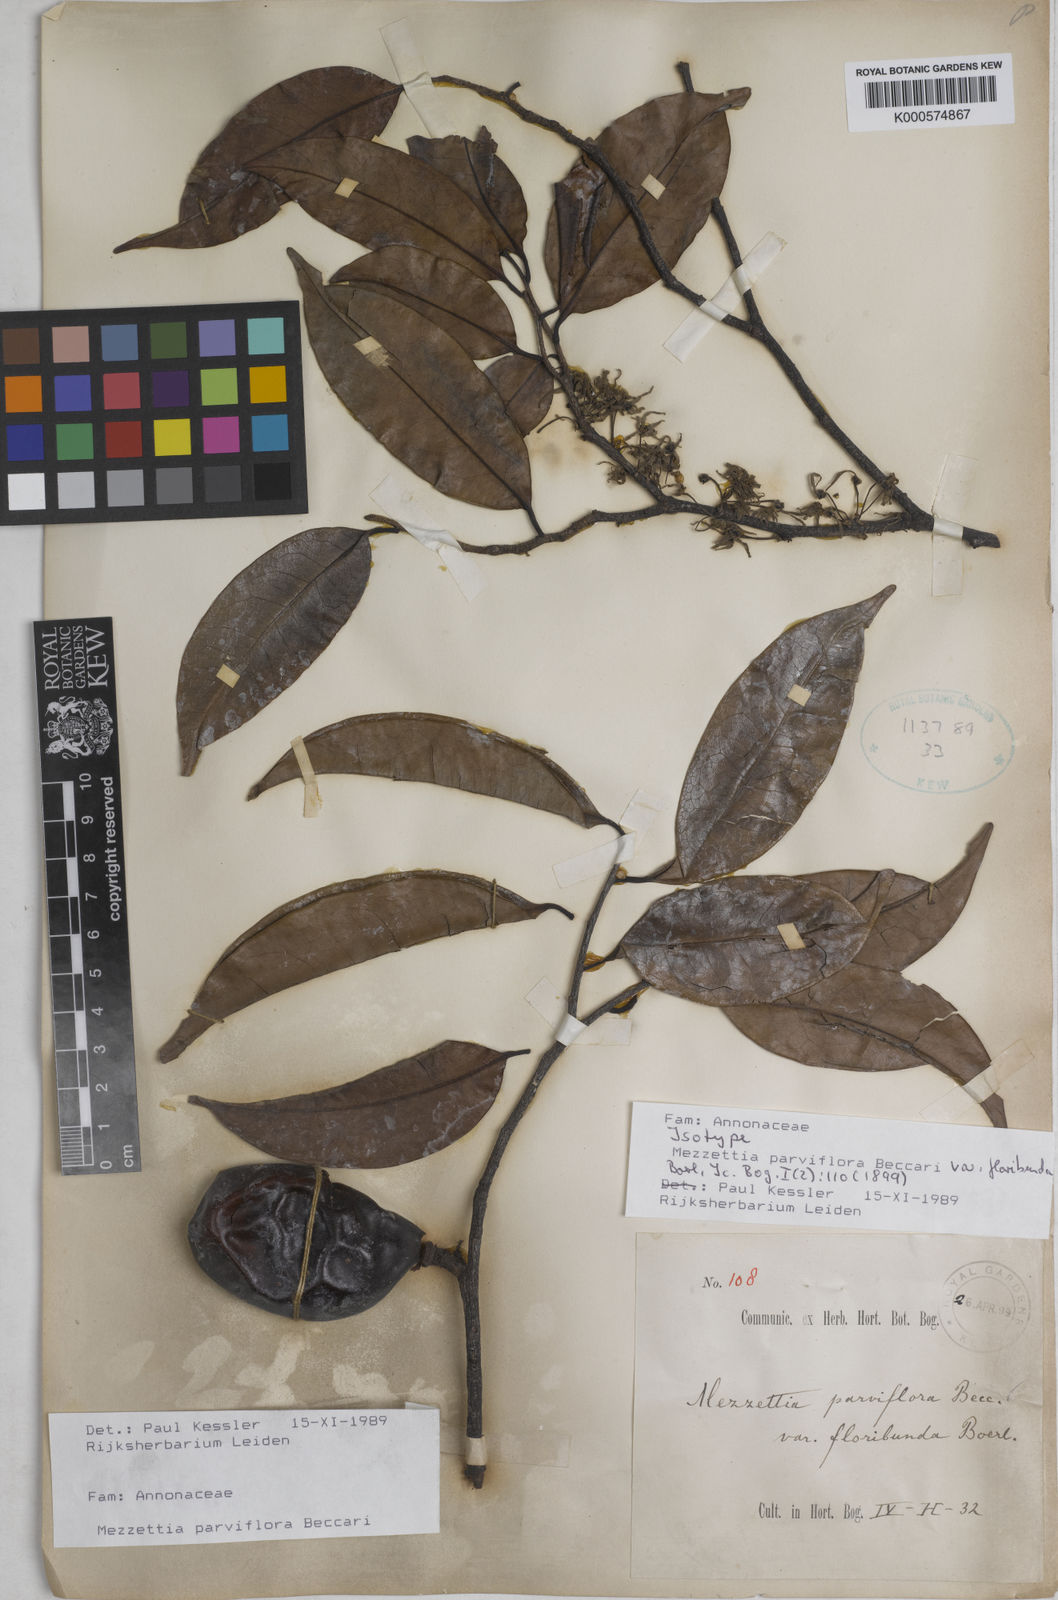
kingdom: Plantae
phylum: Tracheophyta
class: Magnoliopsida
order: Magnoliales
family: Annonaceae
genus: Mezzettia
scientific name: Mezzettia parviflora
